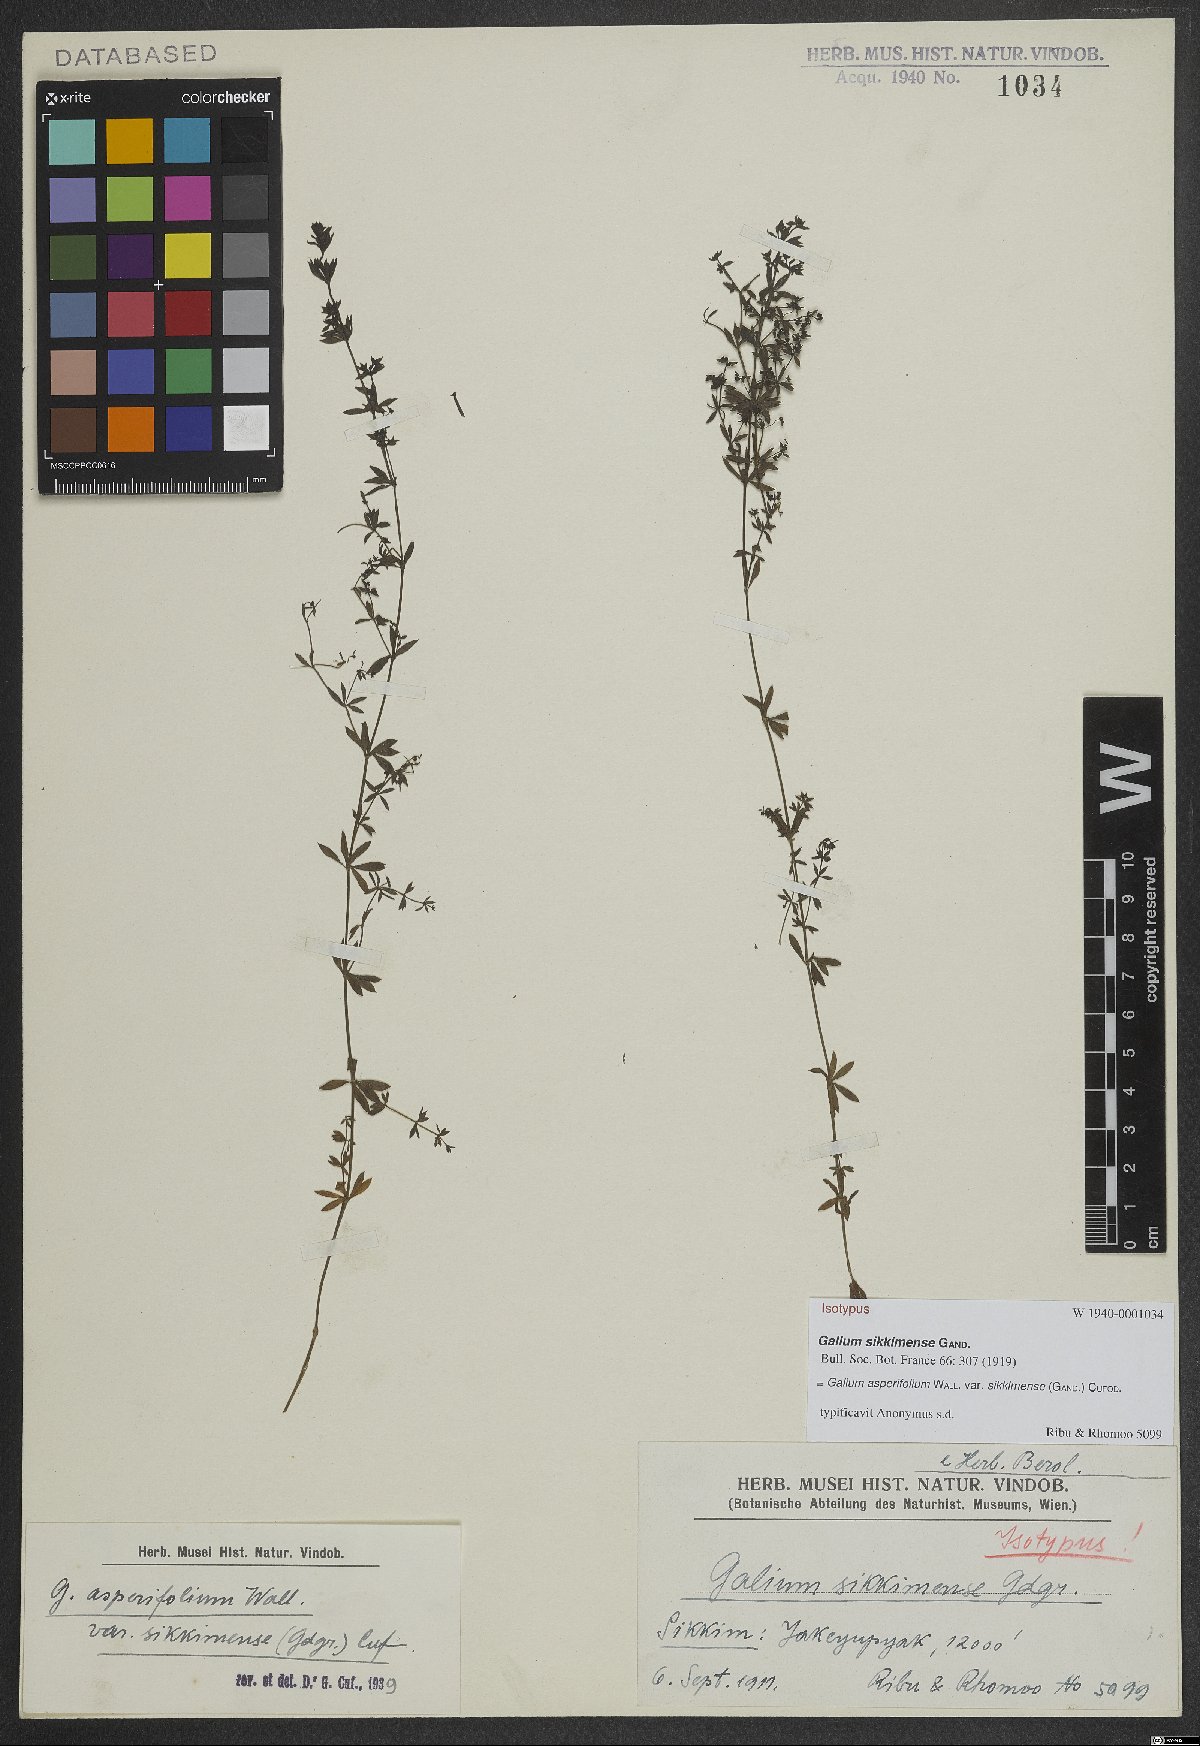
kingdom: Plantae
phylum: Tracheophyta
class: Magnoliopsida
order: Gentianales
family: Rubiaceae
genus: Galium
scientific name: Galium asperifolium
